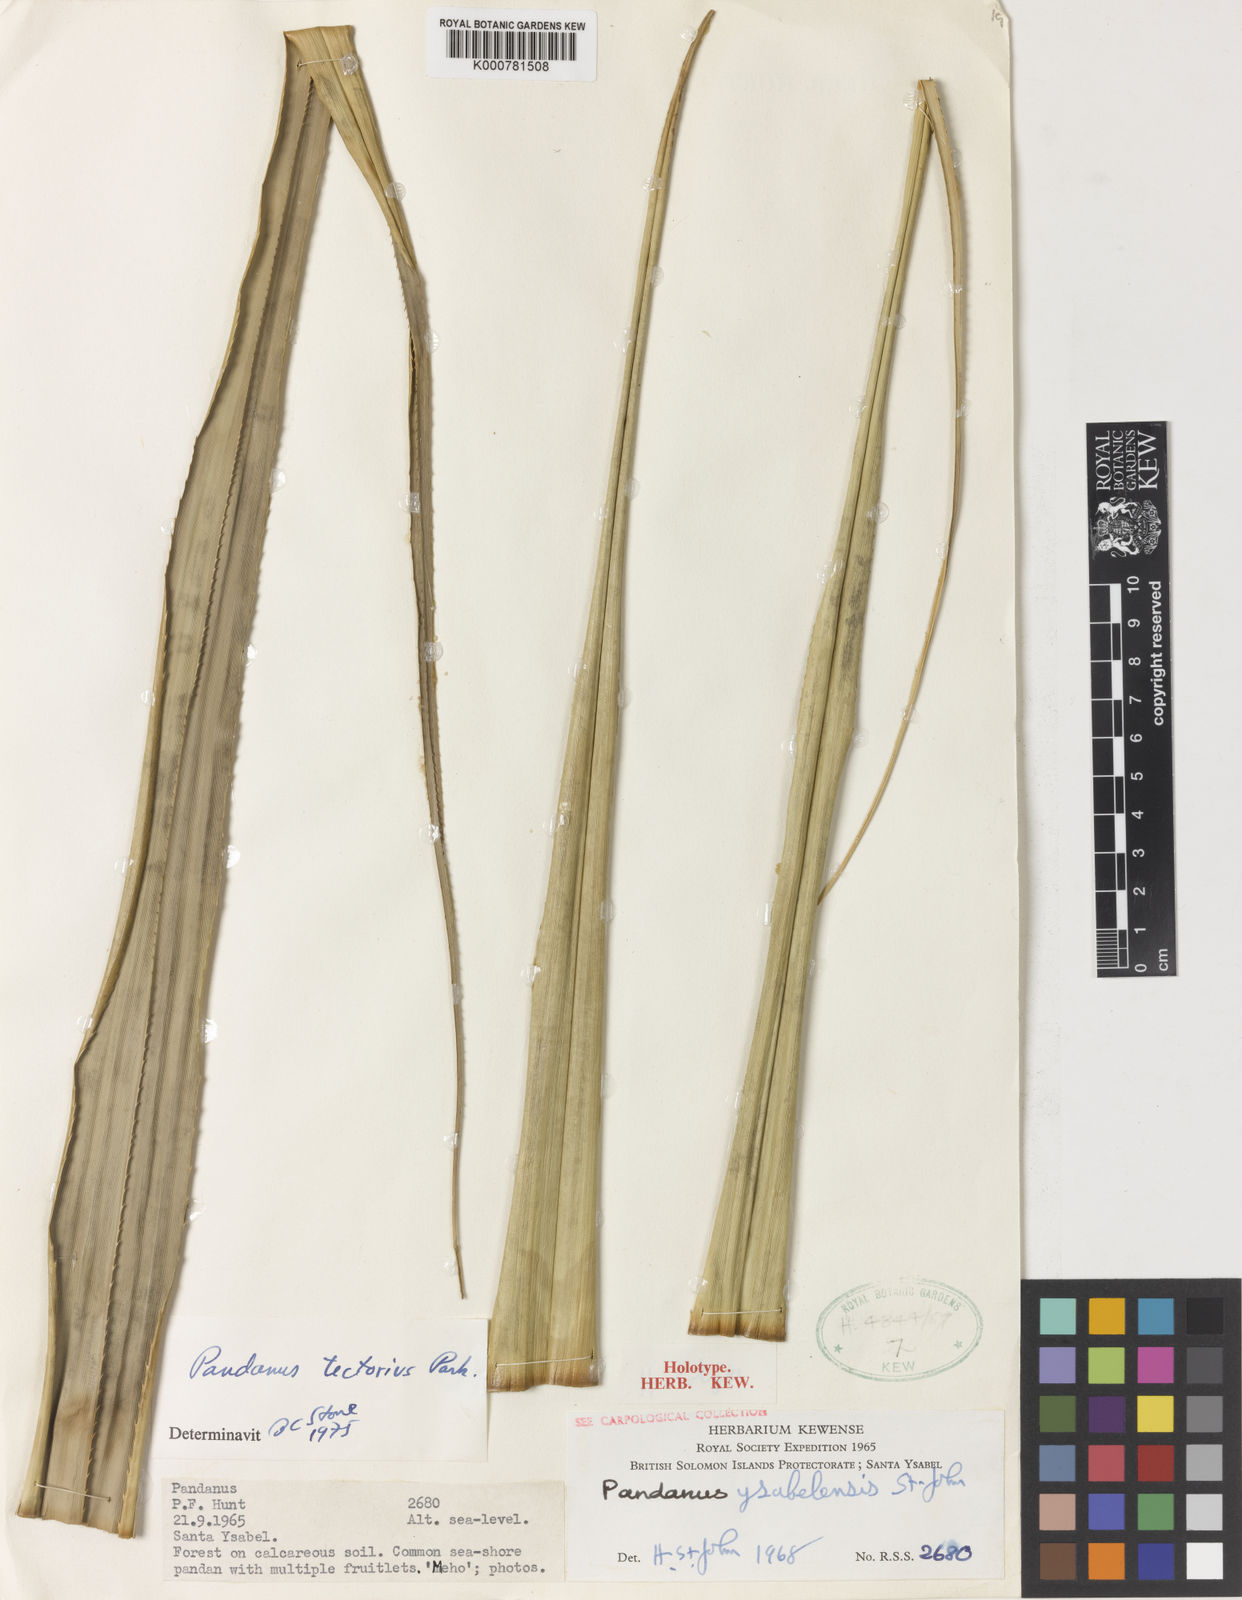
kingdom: Plantae
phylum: Tracheophyta
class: Liliopsida
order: Pandanales
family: Pandanaceae
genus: Pandanus
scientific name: Pandanus
